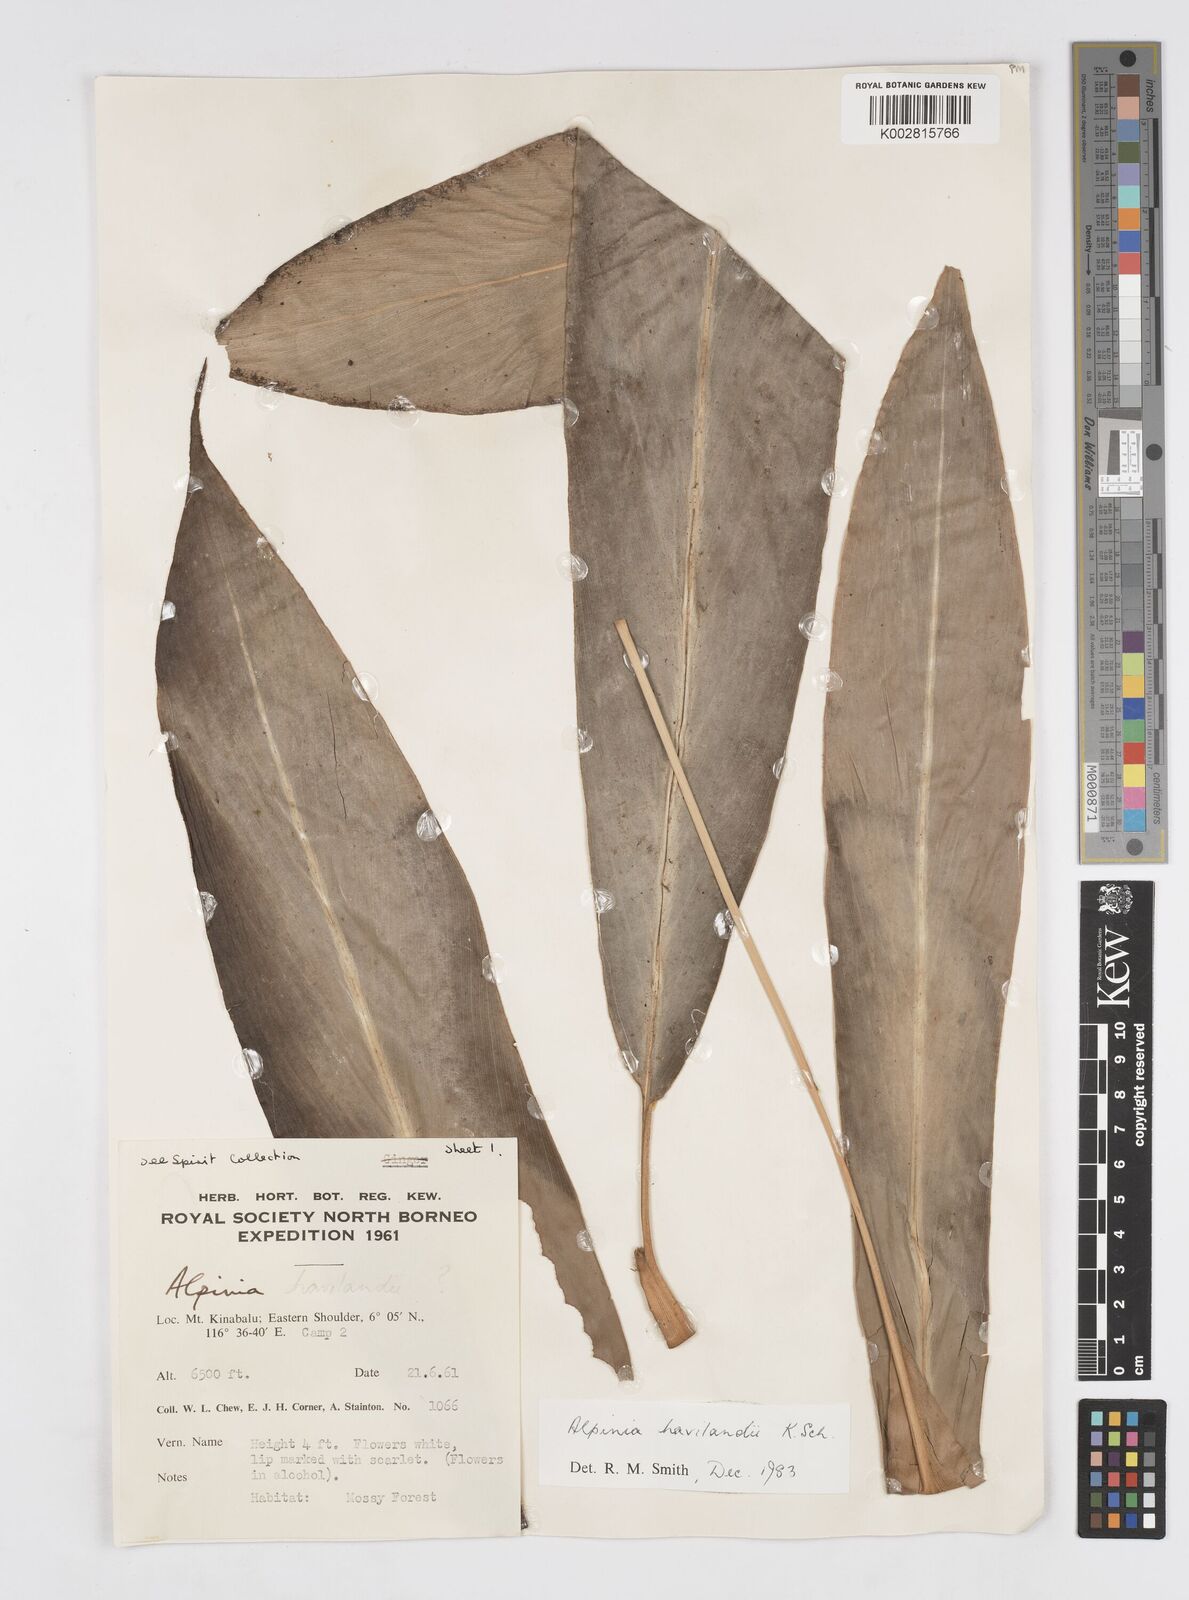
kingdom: Plantae
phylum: Tracheophyta
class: Liliopsida
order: Zingiberales
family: Zingiberaceae
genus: Alpinia
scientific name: Alpinia havilandii
